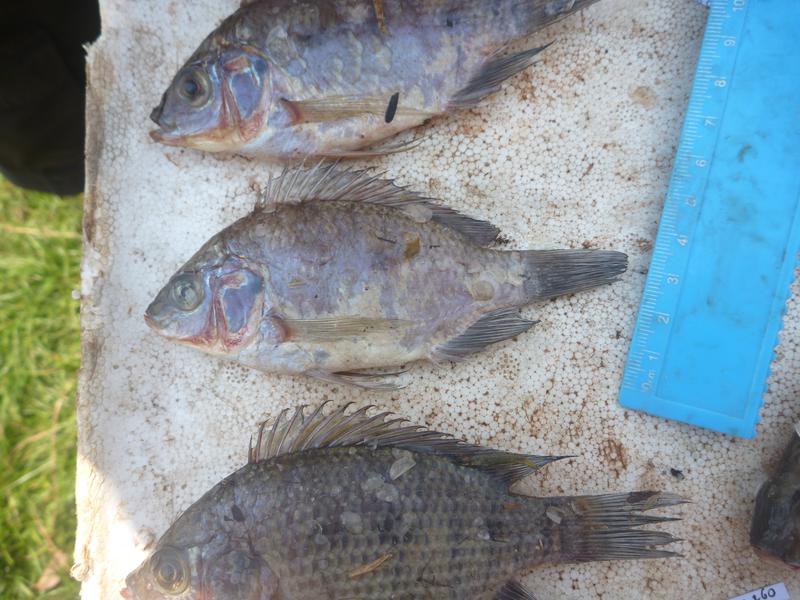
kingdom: Animalia
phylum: Chordata
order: Perciformes
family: Cichlidae
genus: Oreochromis
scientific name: Oreochromis upembae
